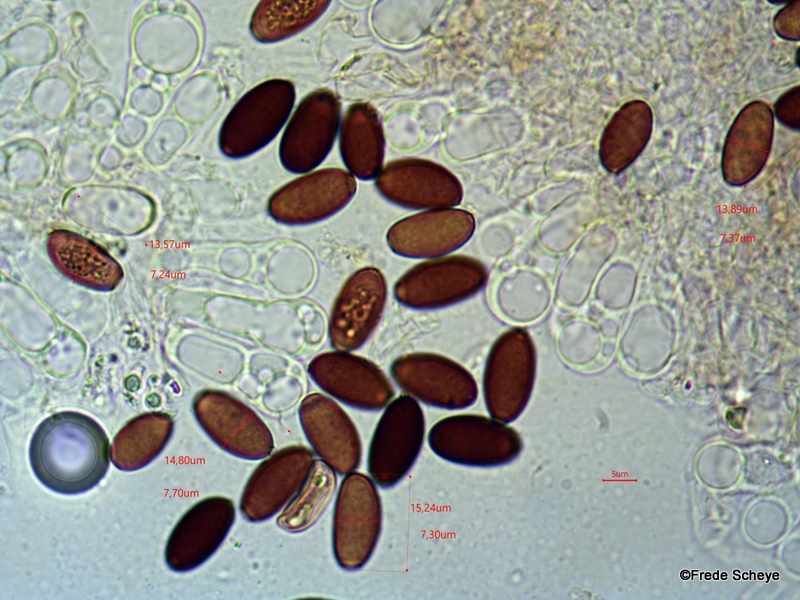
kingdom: Fungi
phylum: Basidiomycota
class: Agaricomycetes
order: Agaricales
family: Psathyrellaceae
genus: Parasola
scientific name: Parasola conopilea
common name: kegle-hjulhat
